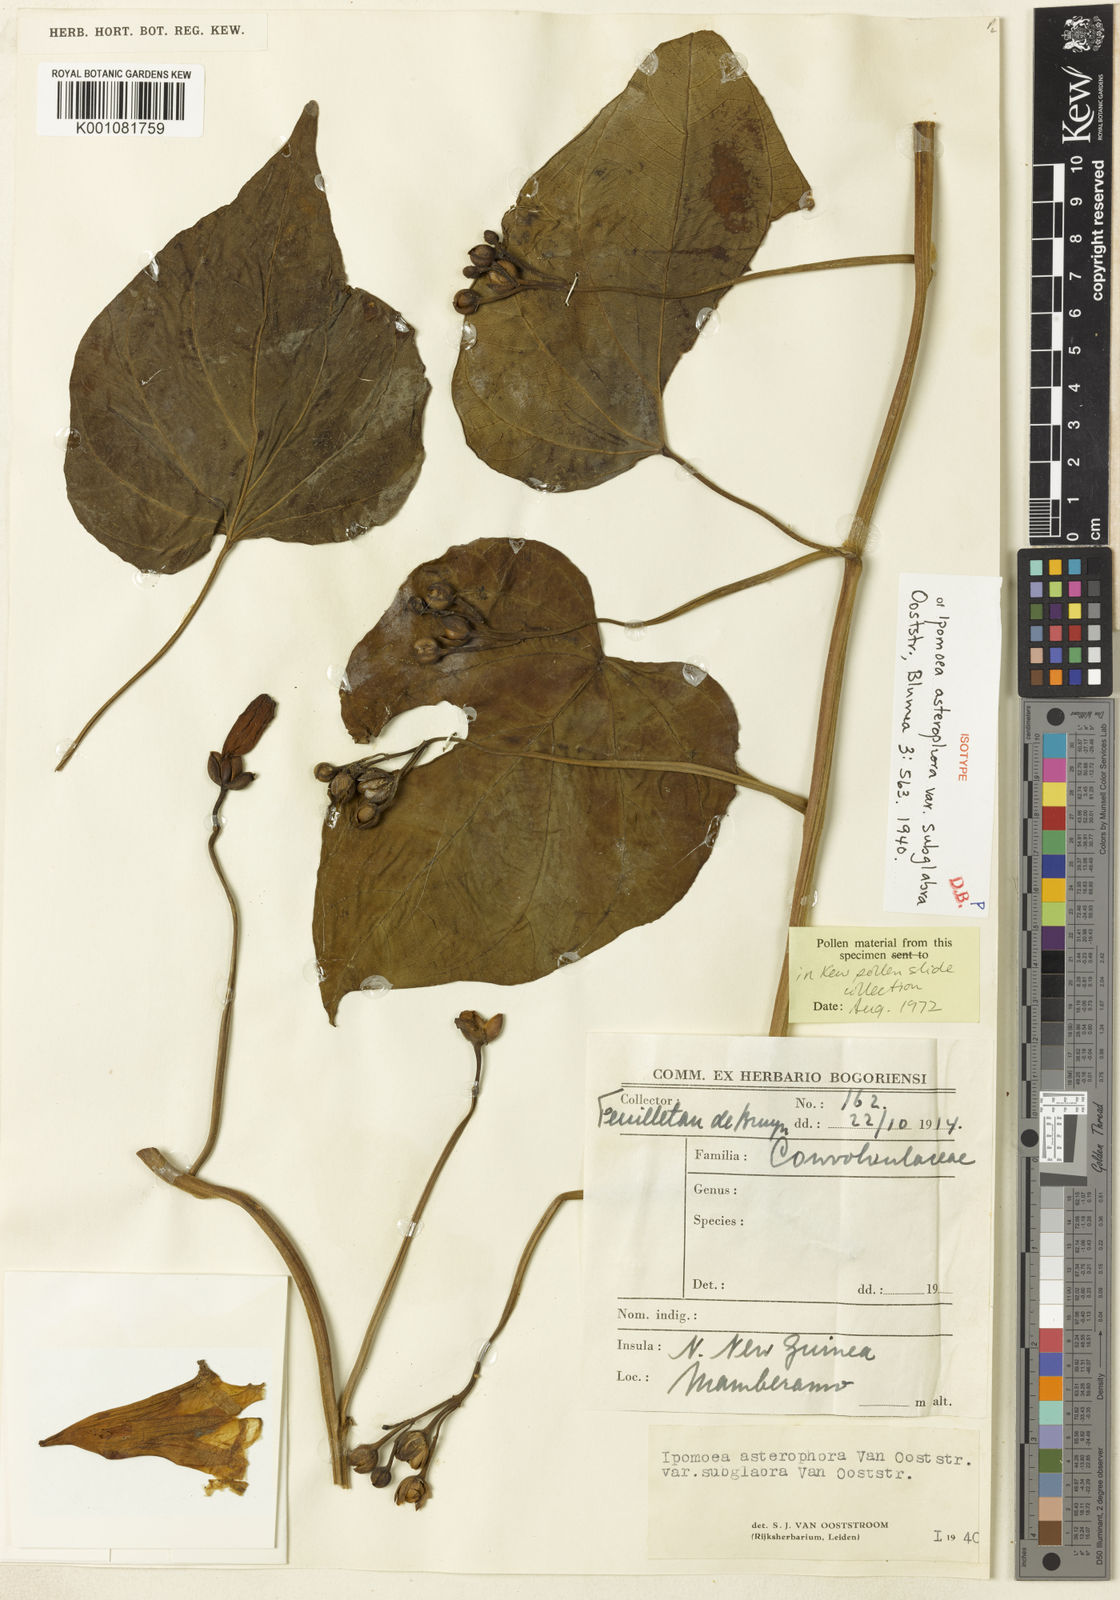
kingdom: Plantae
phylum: Tracheophyta
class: Magnoliopsida
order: Solanales
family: Convolvulaceae
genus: Ipomoea
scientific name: Ipomoea asterophora
